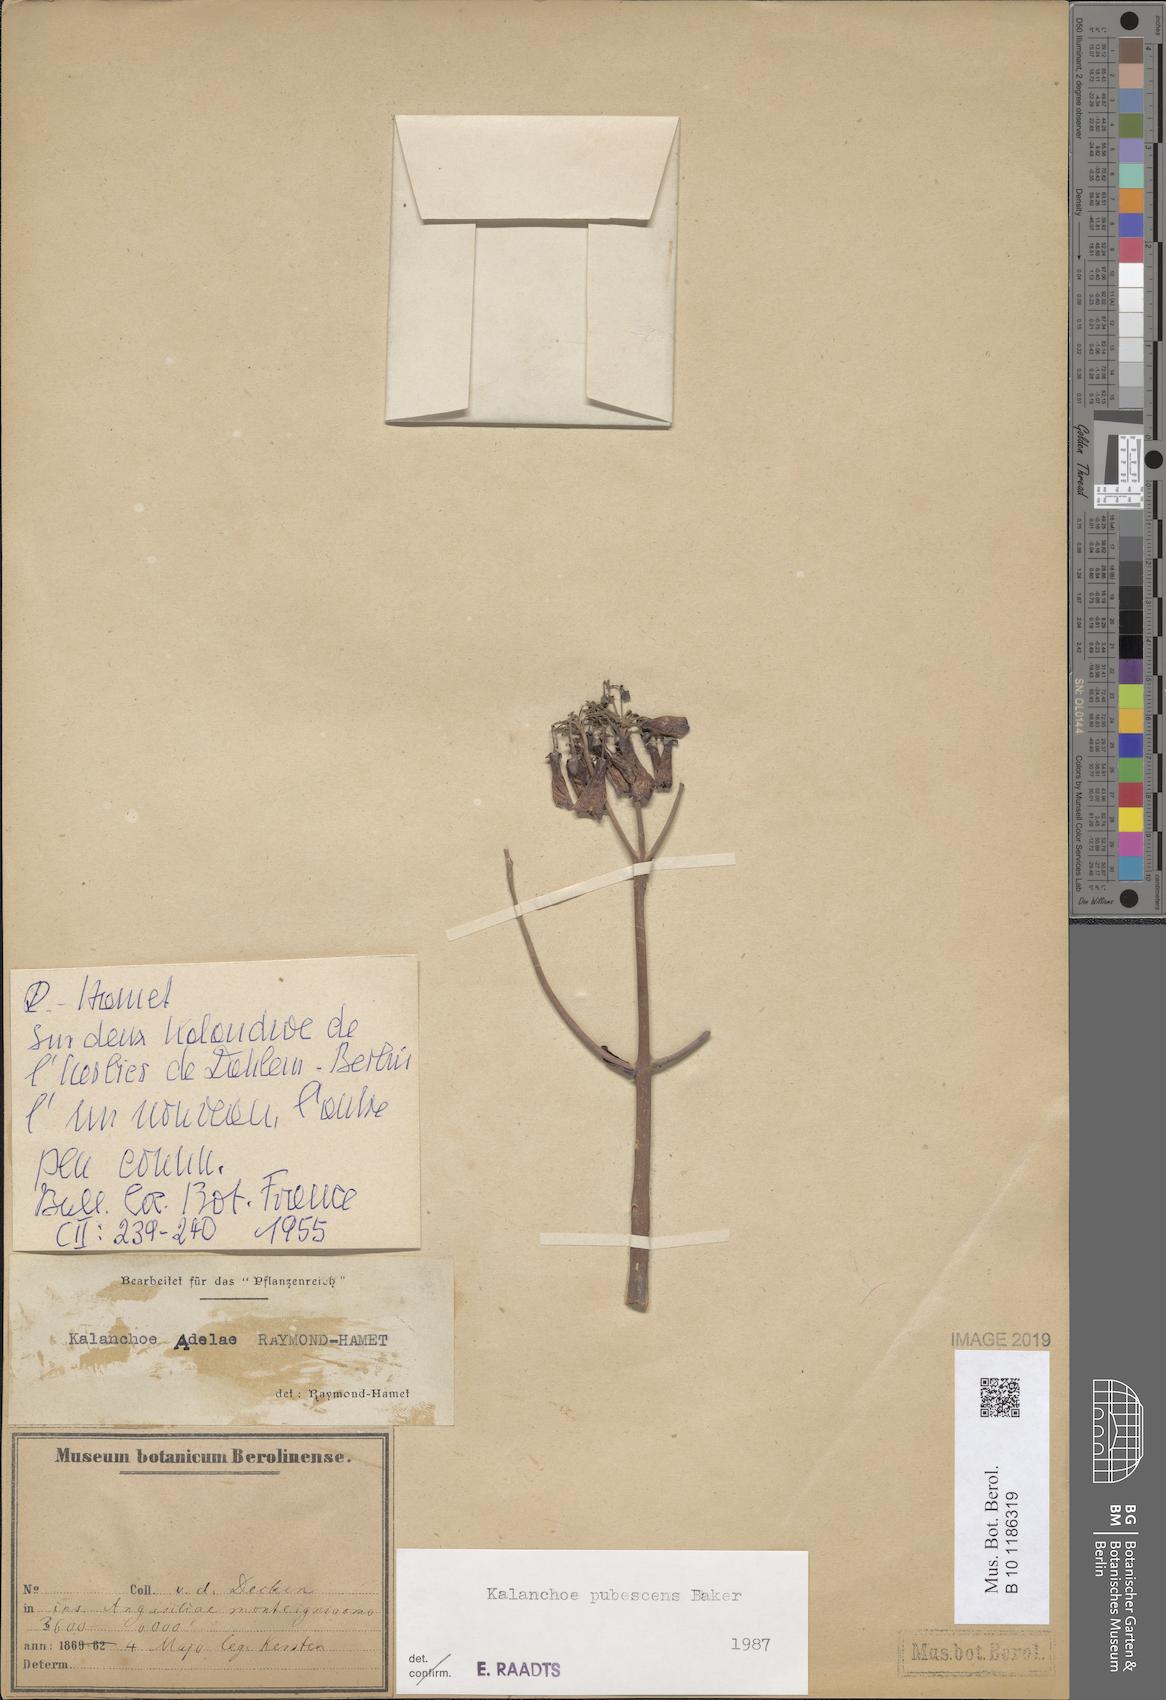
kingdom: Plantae
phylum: Tracheophyta
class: Magnoliopsida
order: Saxifragales
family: Crassulaceae
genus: Kalanchoe
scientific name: Kalanchoe pubescens
